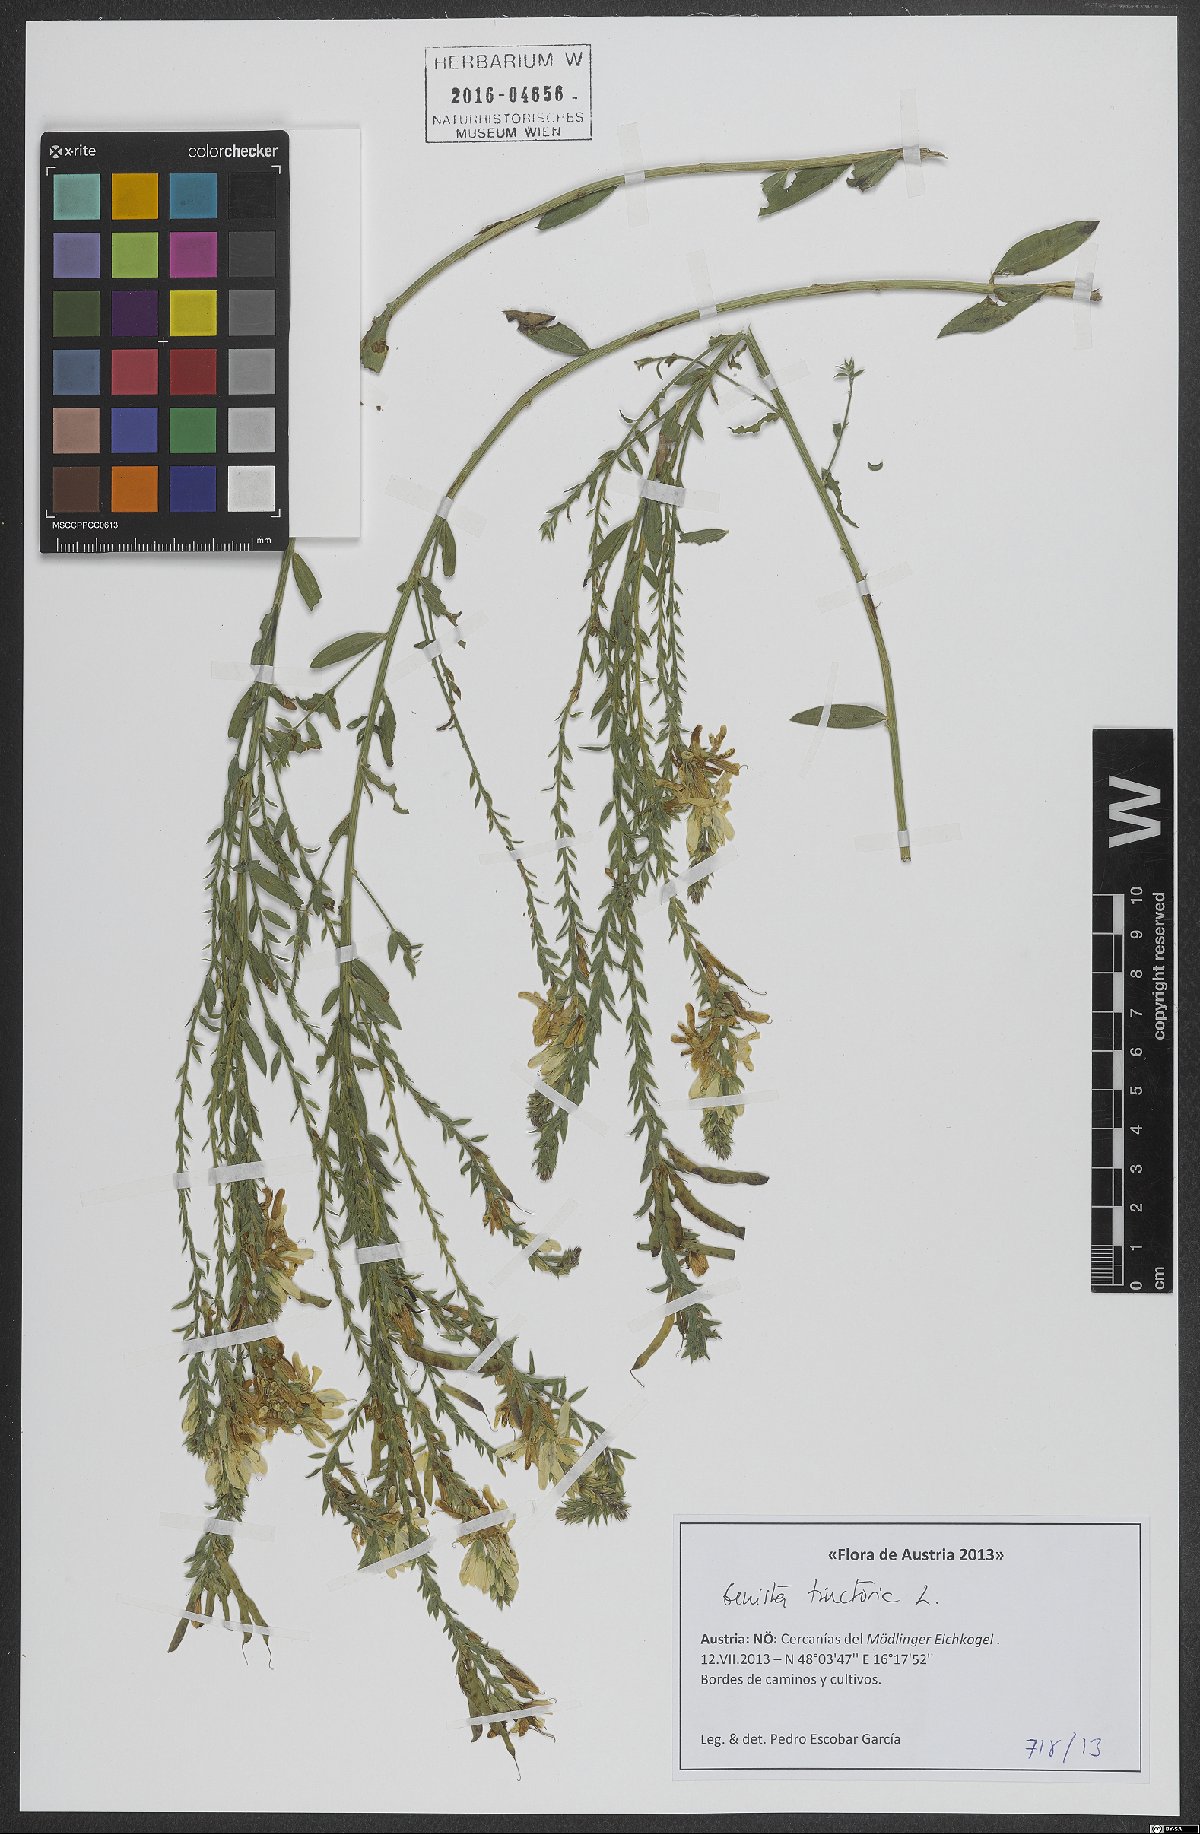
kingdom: Plantae
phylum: Tracheophyta
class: Magnoliopsida
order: Fabales
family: Fabaceae
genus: Genista
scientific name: Genista tinctoria
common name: Dyer's greenweed
